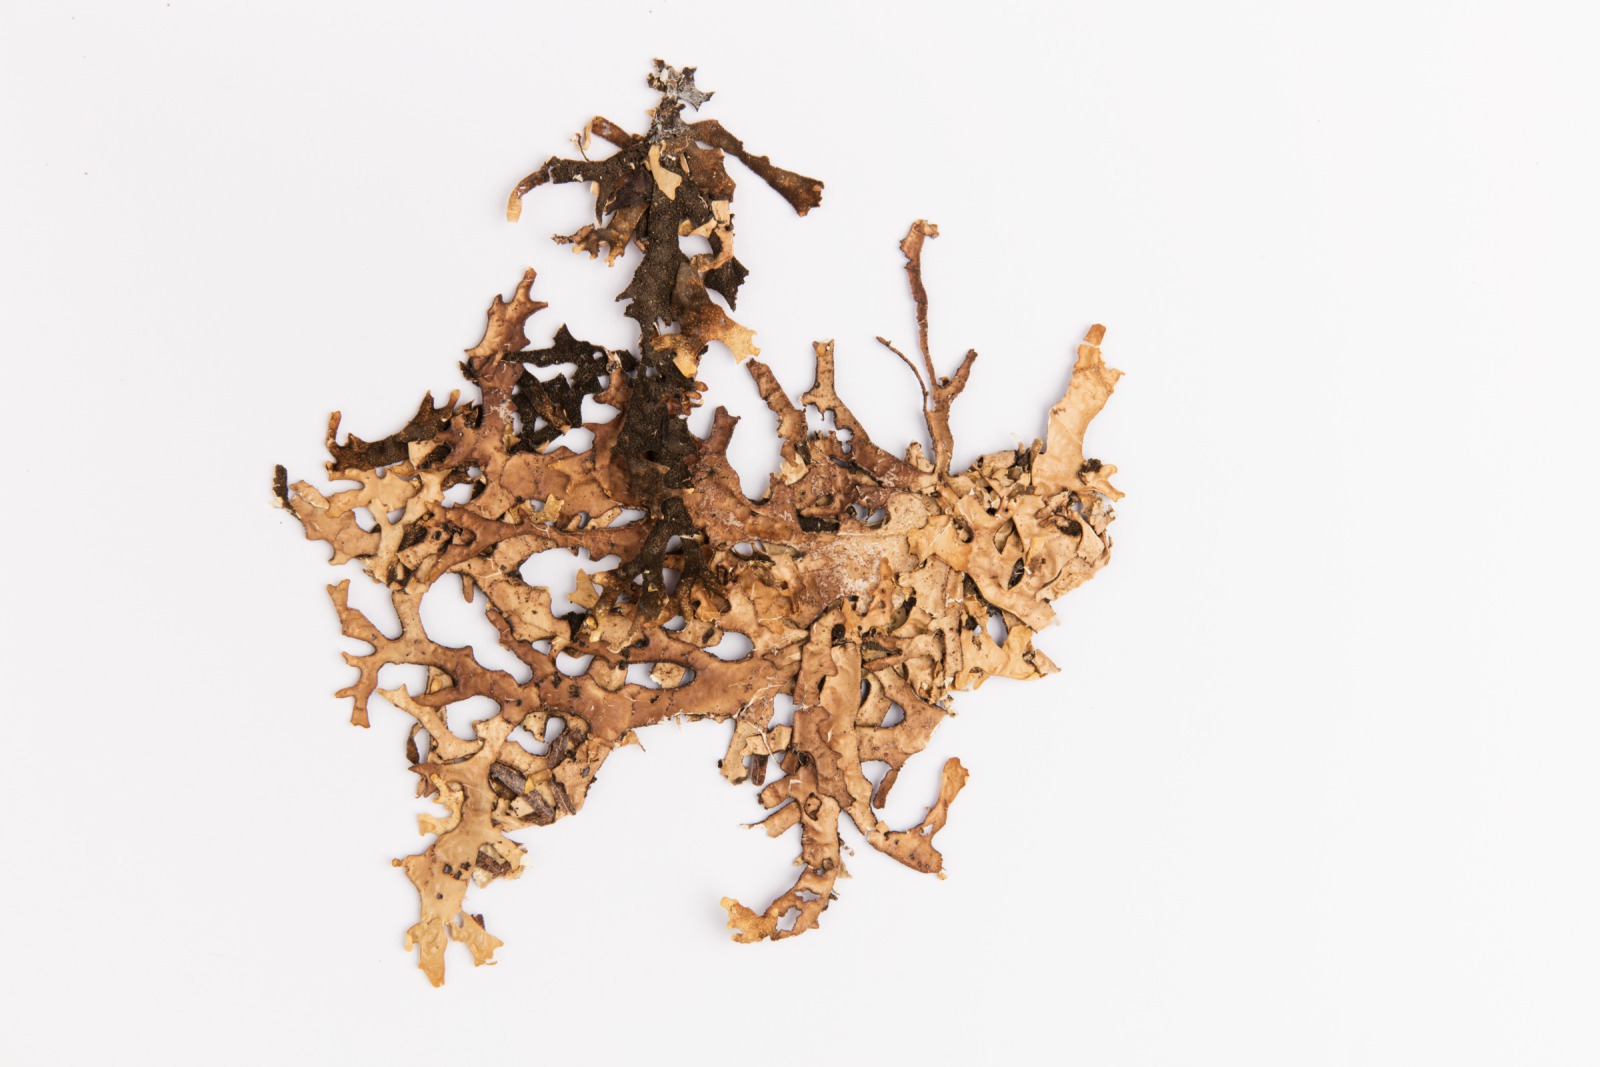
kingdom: Fungi
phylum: Ascomycota
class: Lecanoromycetes
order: Peltigerales
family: Lobariaceae
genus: Pseudocyphellaria
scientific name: Pseudocyphellaria carpoloma
